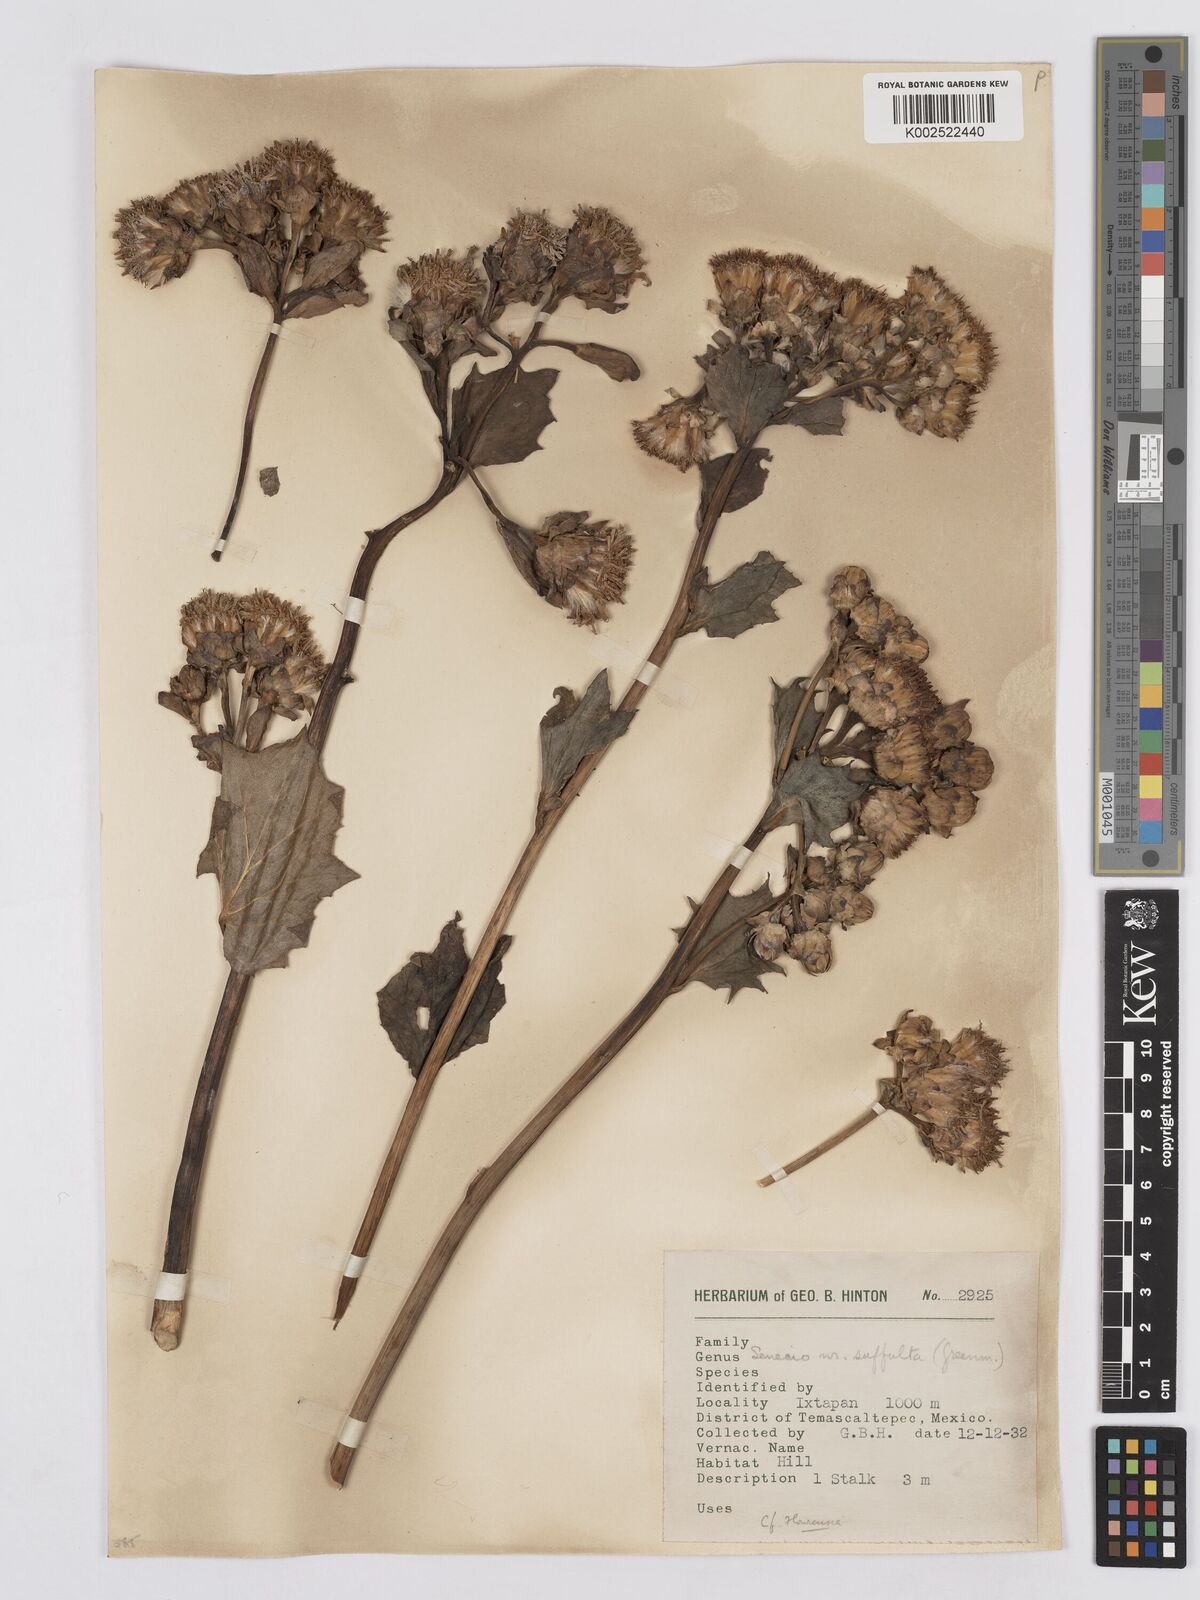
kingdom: Plantae
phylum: Tracheophyta
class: Magnoliopsida
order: Asterales
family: Asteraceae
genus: Roldana
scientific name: Roldana suffulta
